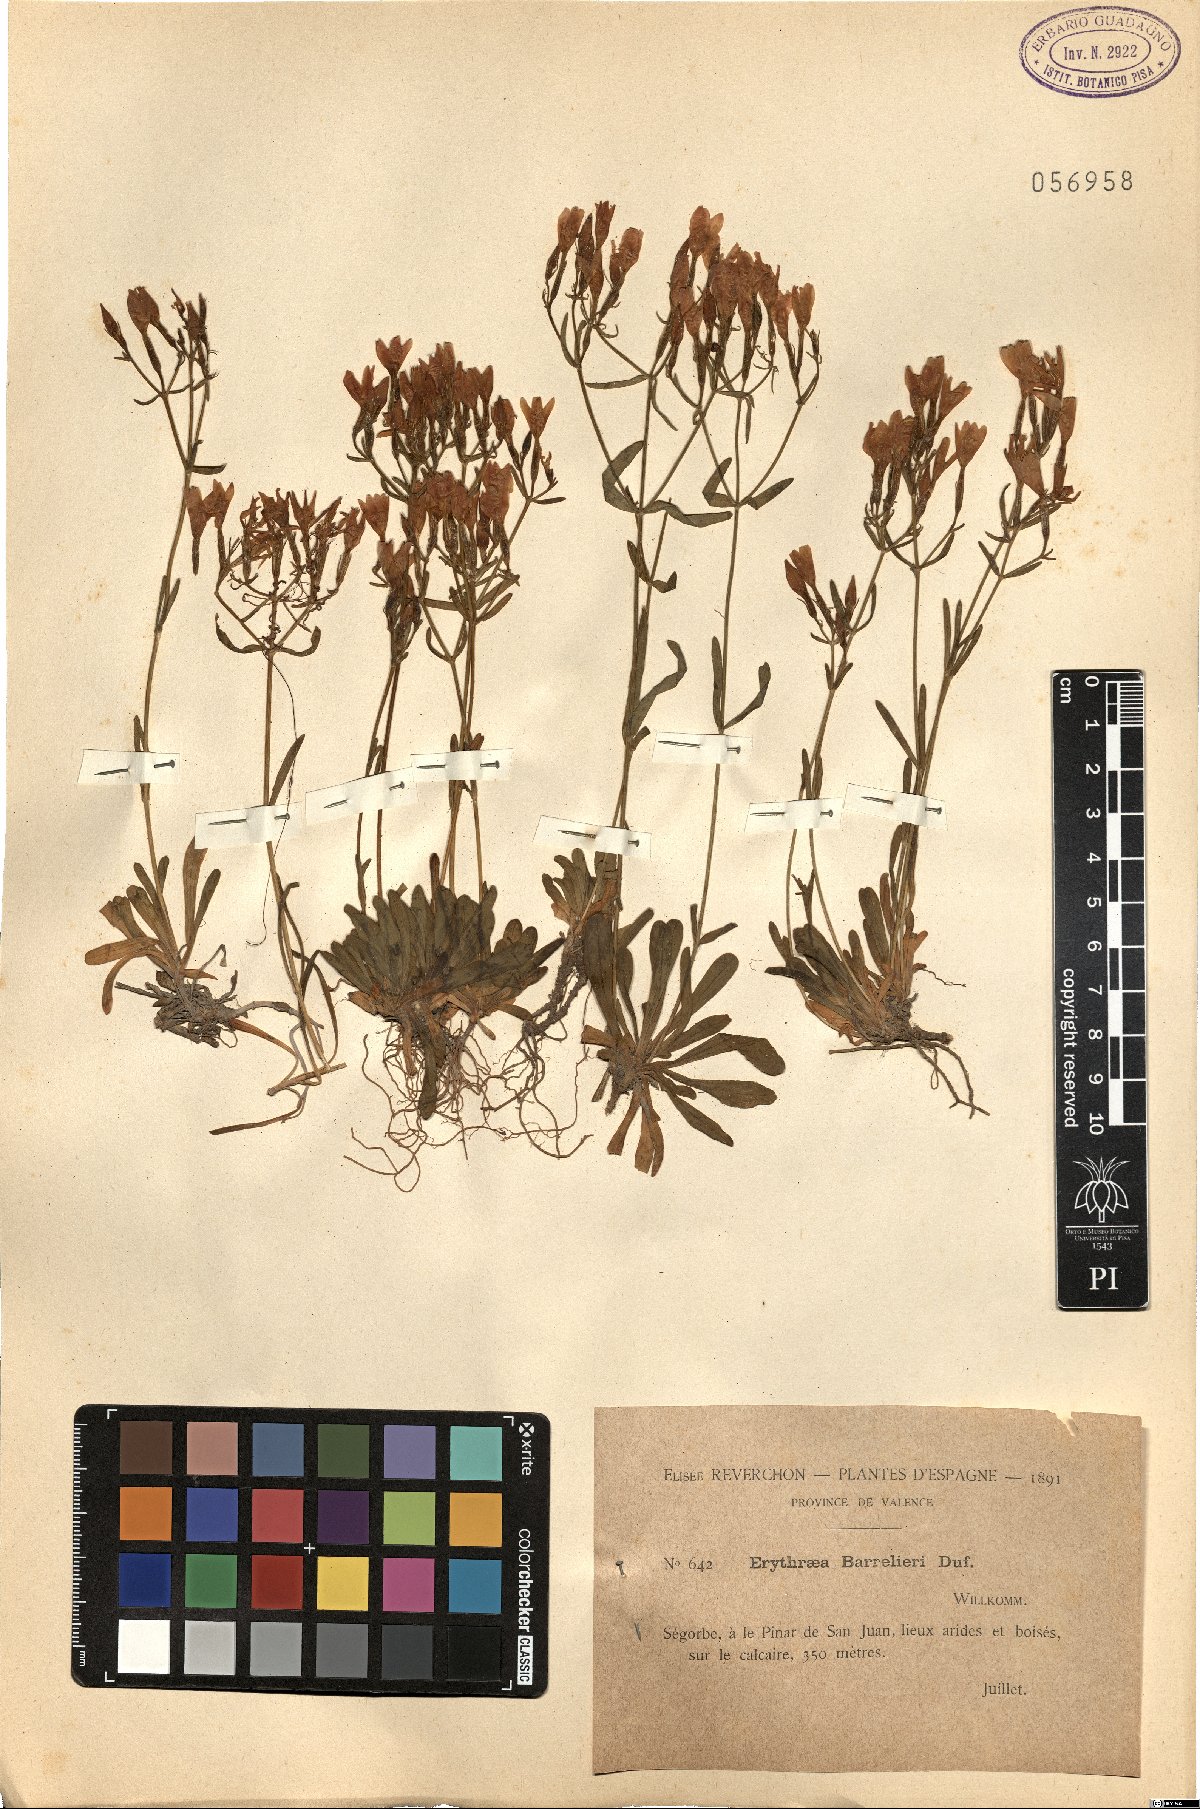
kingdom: Plantae
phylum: Tracheophyta
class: Magnoliopsida
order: Gentianales
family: Gentianaceae
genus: Centaurium
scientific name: Centaurium quadrifolium
